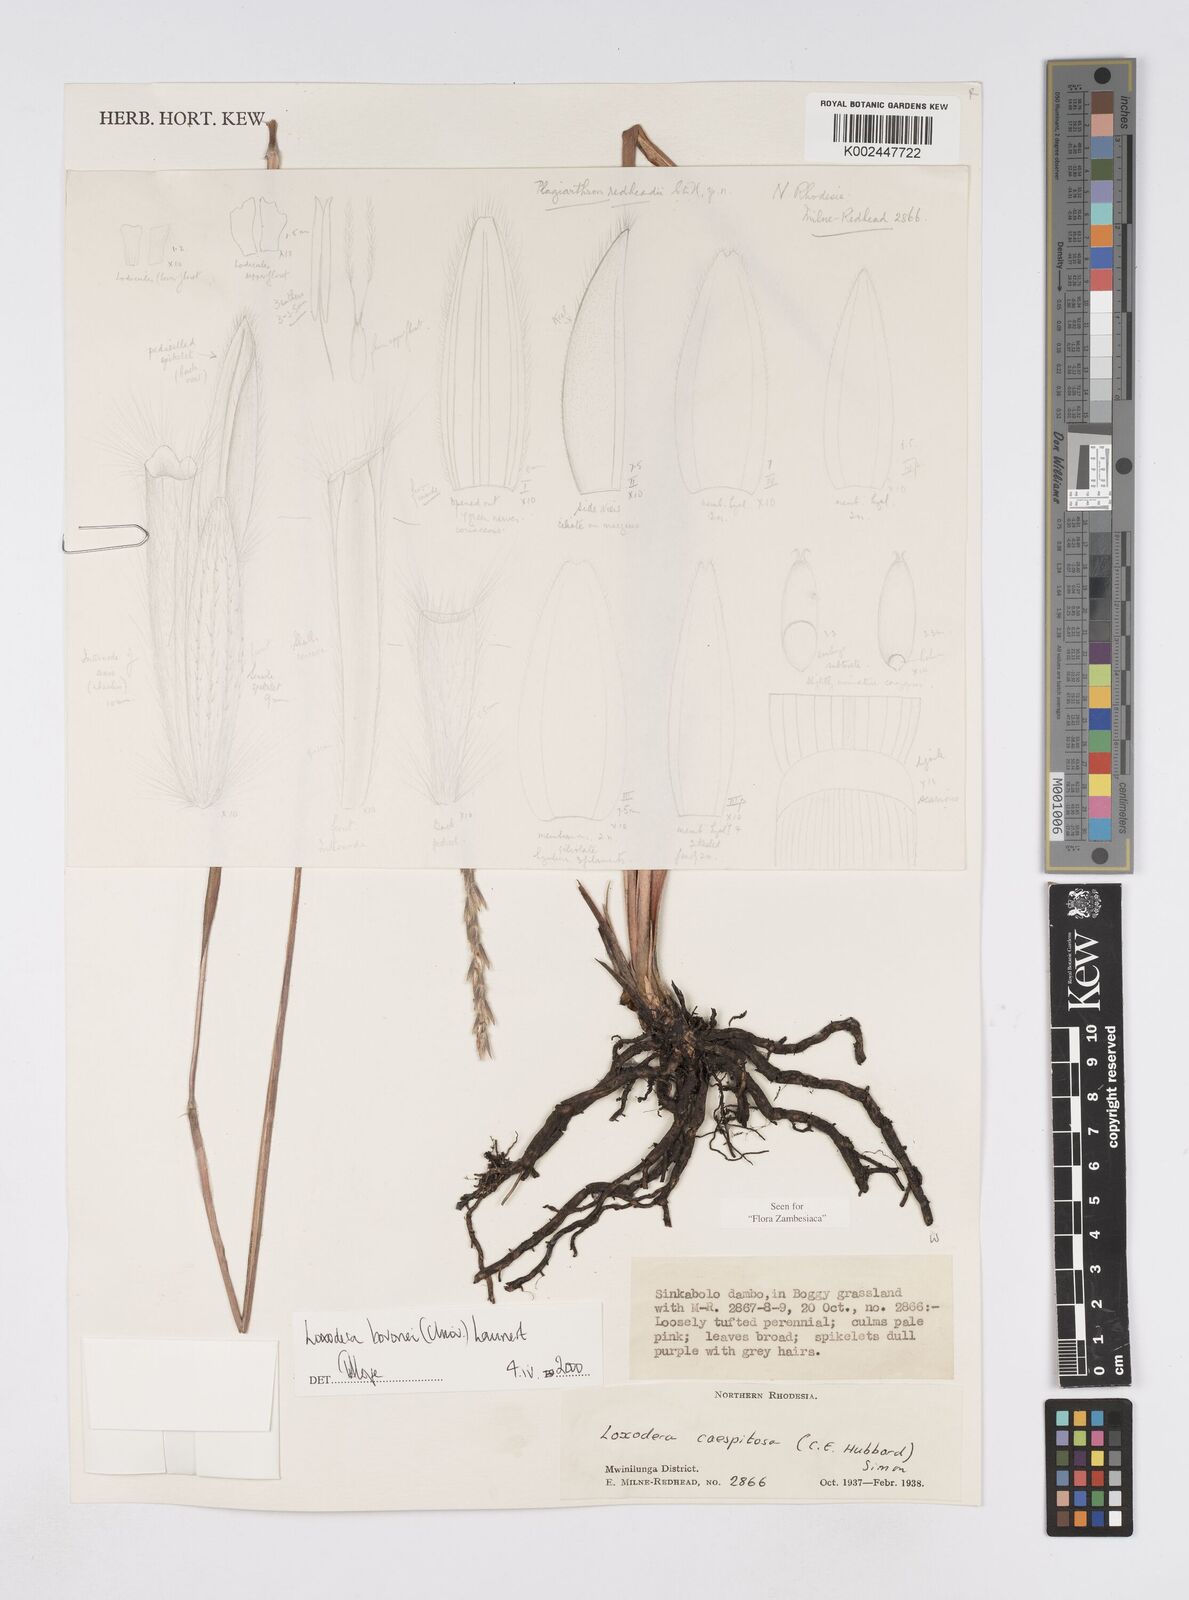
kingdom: Plantae
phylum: Tracheophyta
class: Liliopsida
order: Poales
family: Poaceae
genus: Loxodera
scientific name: Loxodera bovonei
